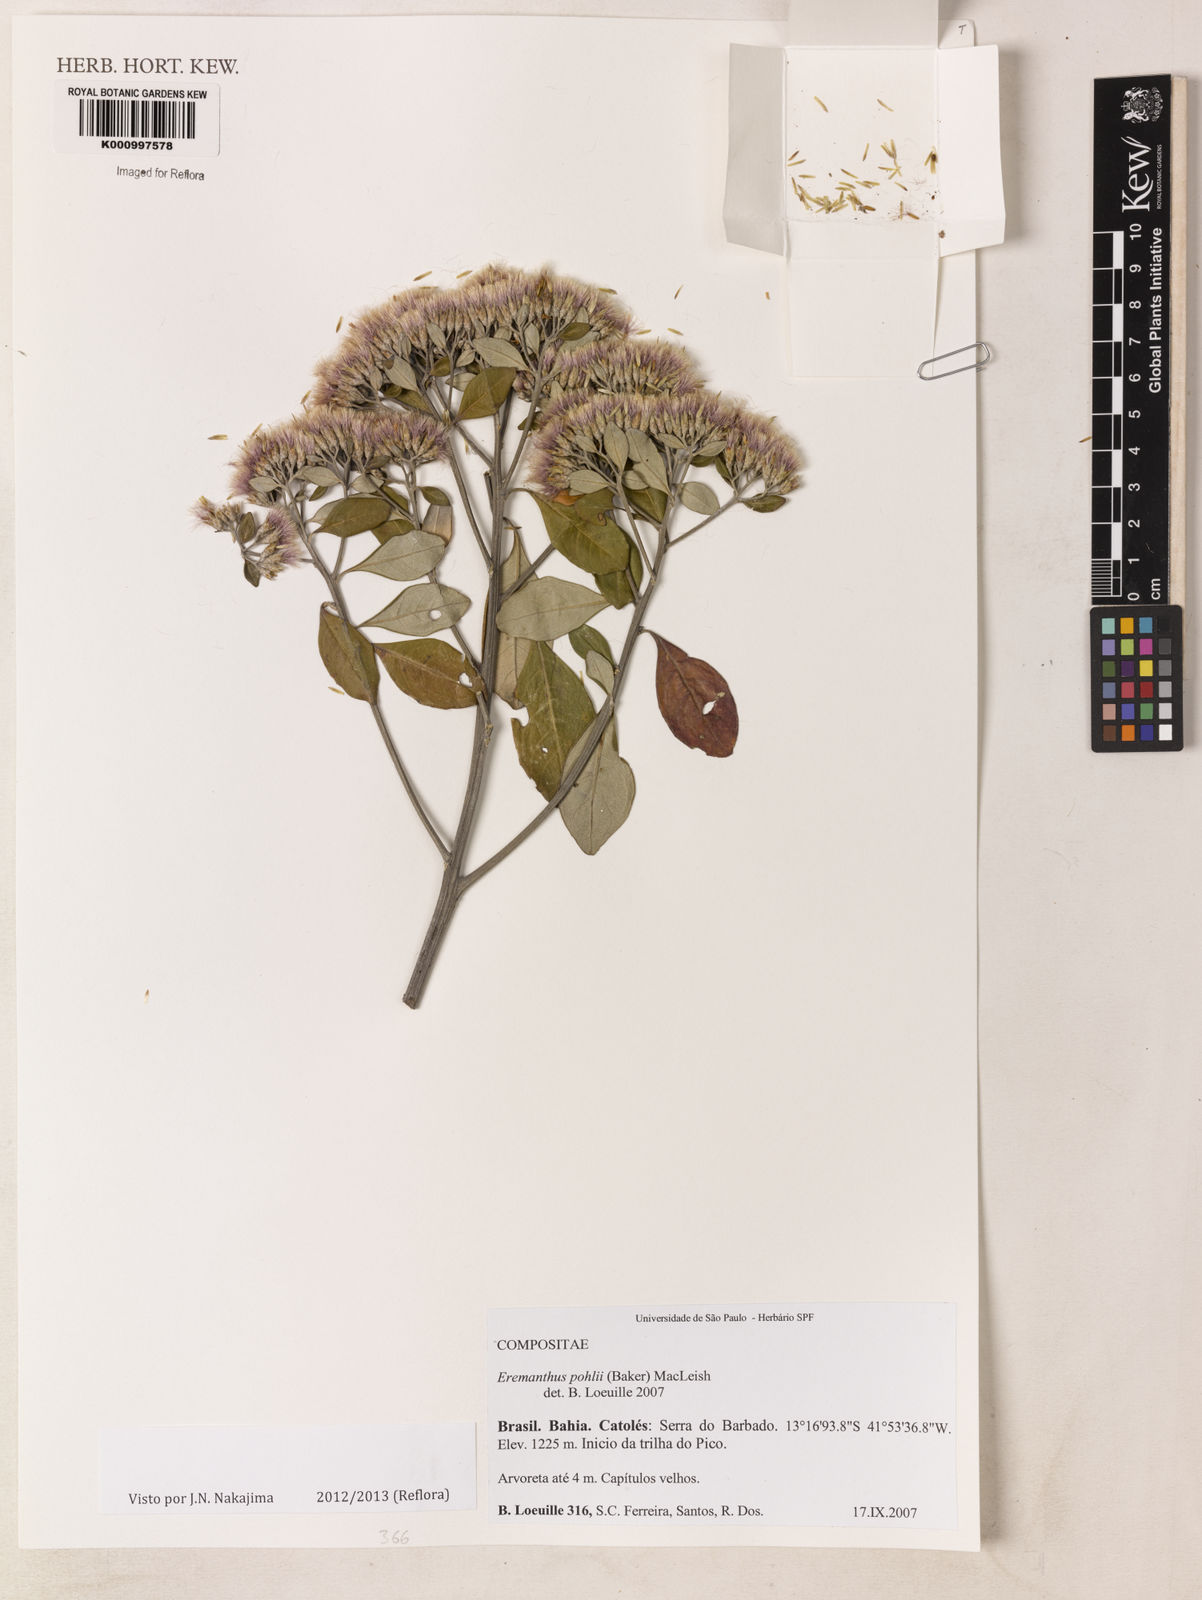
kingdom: Plantae
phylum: Tracheophyta
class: Magnoliopsida
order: Asterales
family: Asteraceae
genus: Eremanthus
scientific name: Eremanthus capitatus
